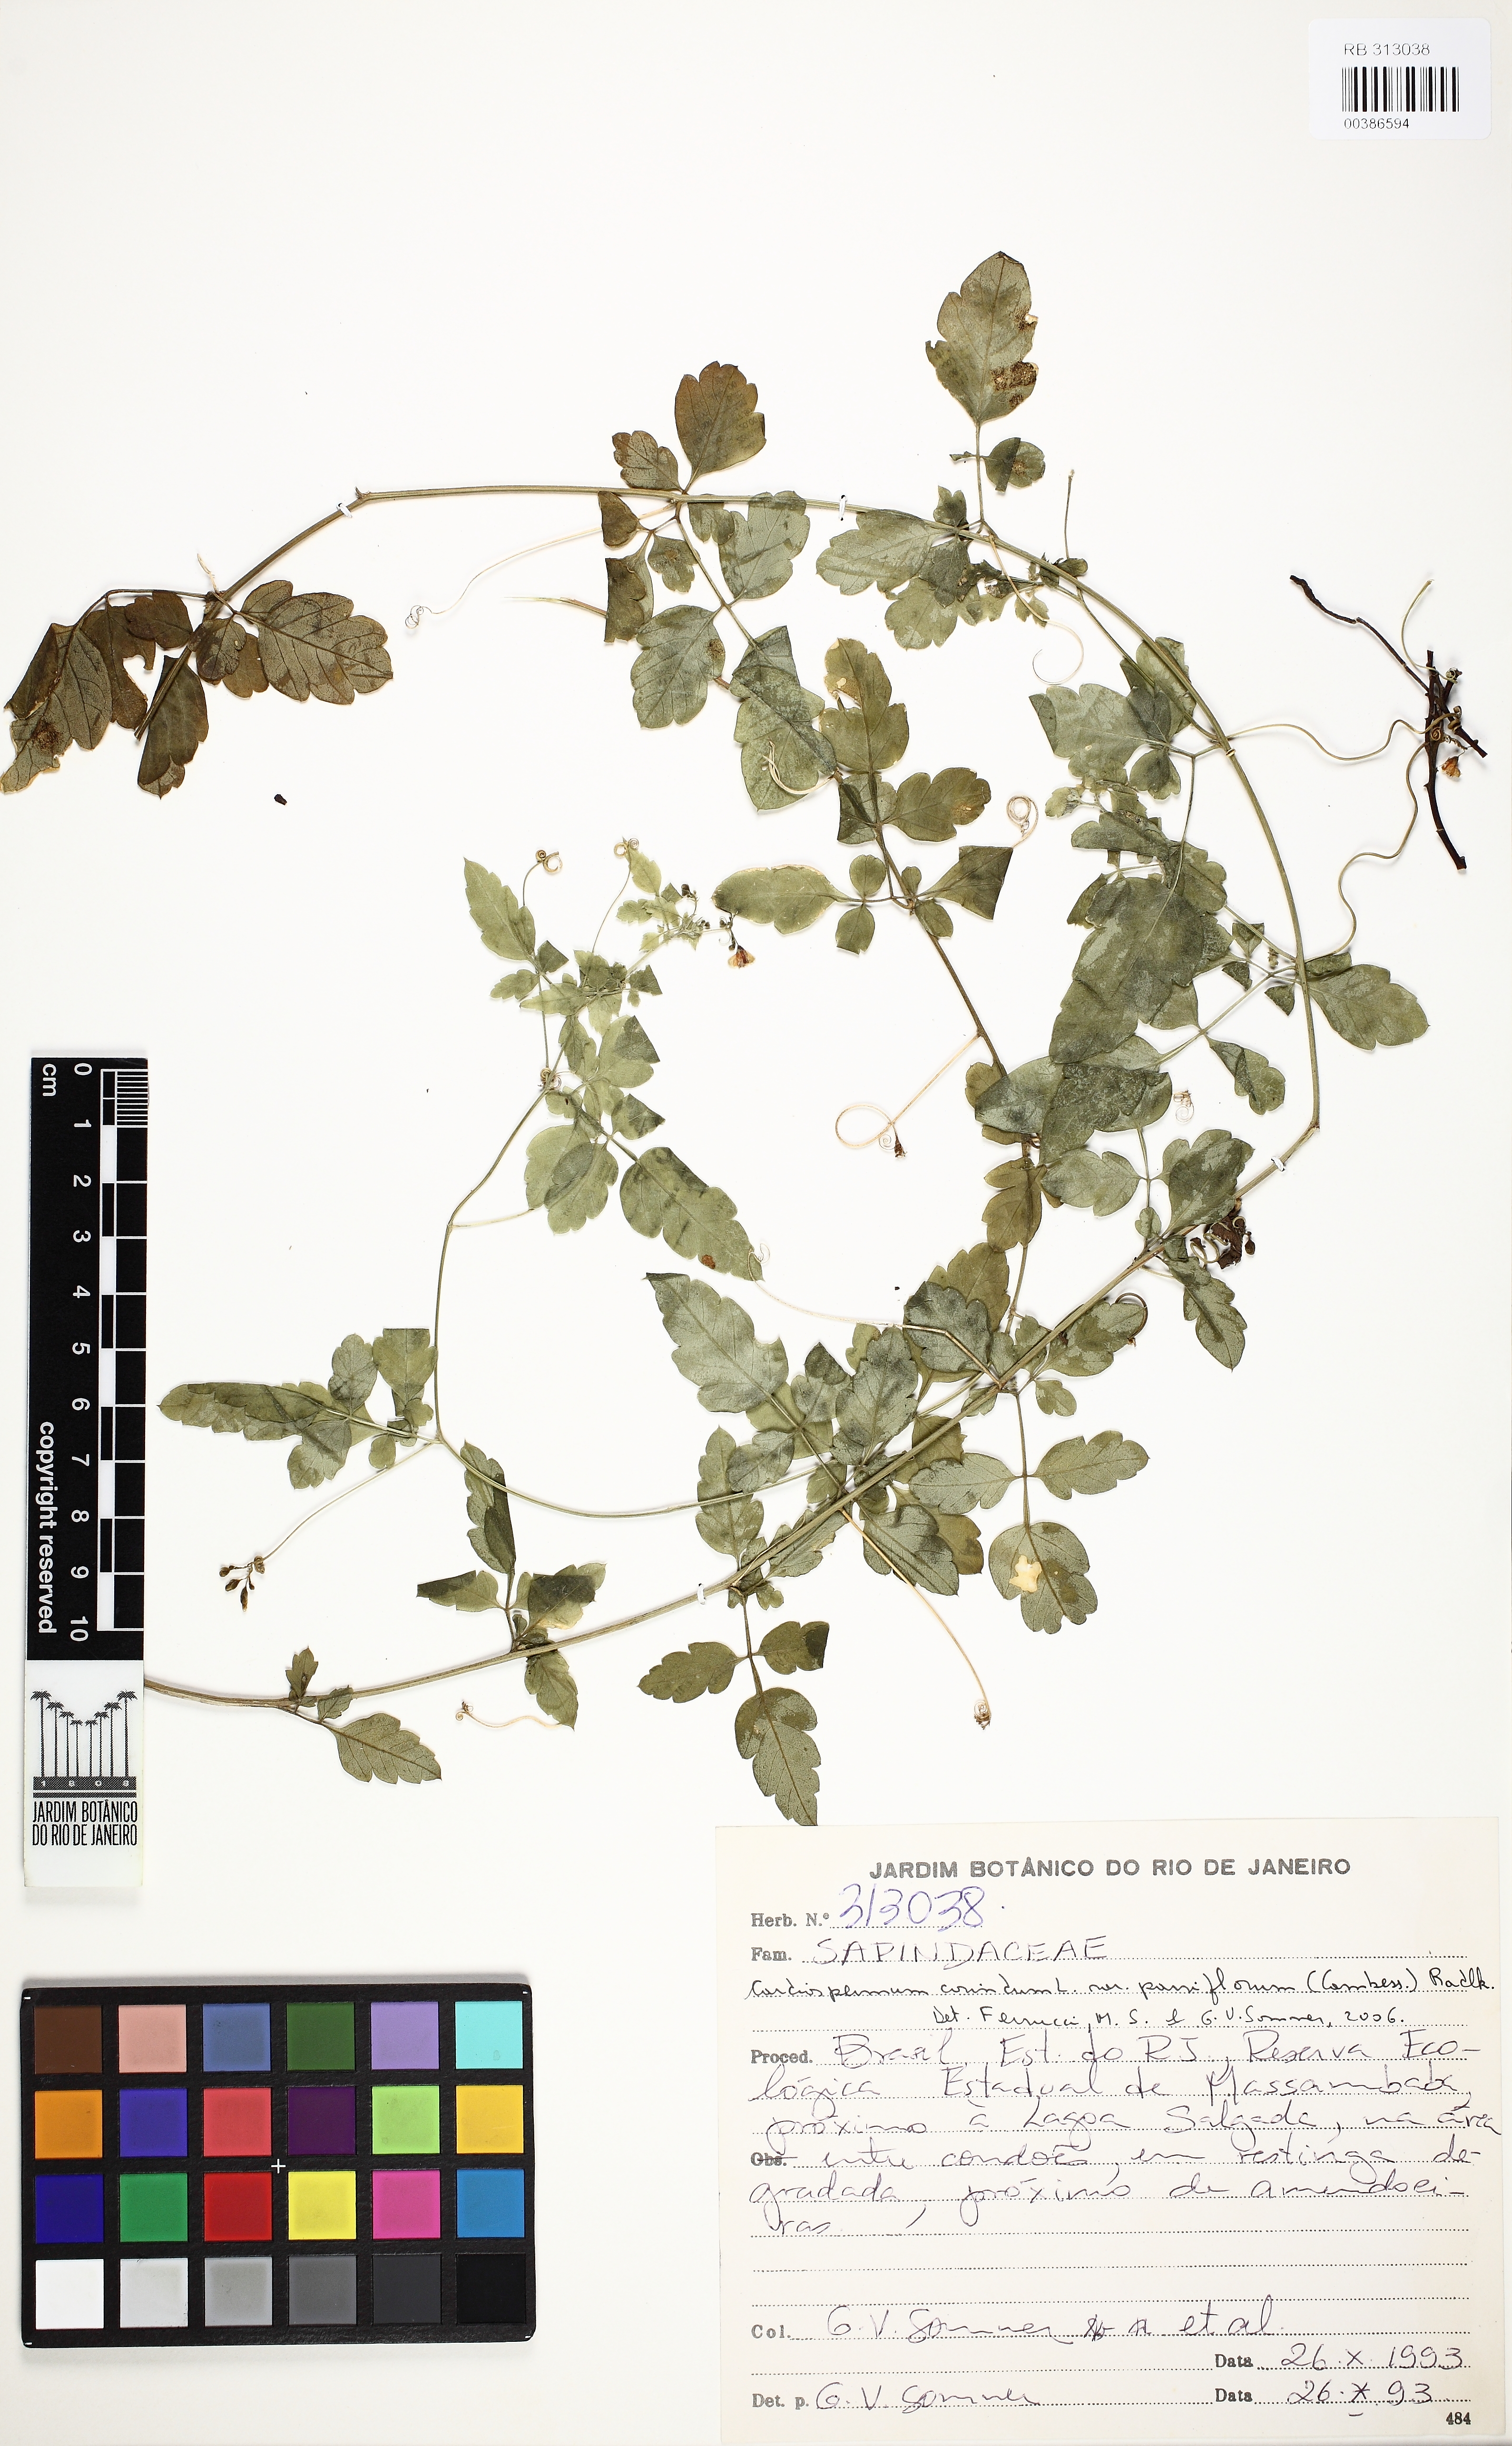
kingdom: Plantae
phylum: Tracheophyta
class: Magnoliopsida
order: Sapindales
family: Sapindaceae
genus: Cardiospermum
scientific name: Cardiospermum corindum
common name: Faux persil
